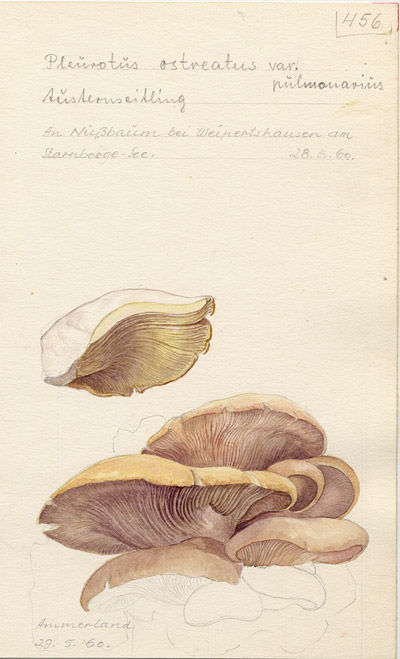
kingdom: Fungi
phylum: Basidiomycota
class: Agaricomycetes
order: Agaricales
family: Pleurotaceae
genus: Pleurotus
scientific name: Pleurotus pulmonarius
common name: Pale oyster
